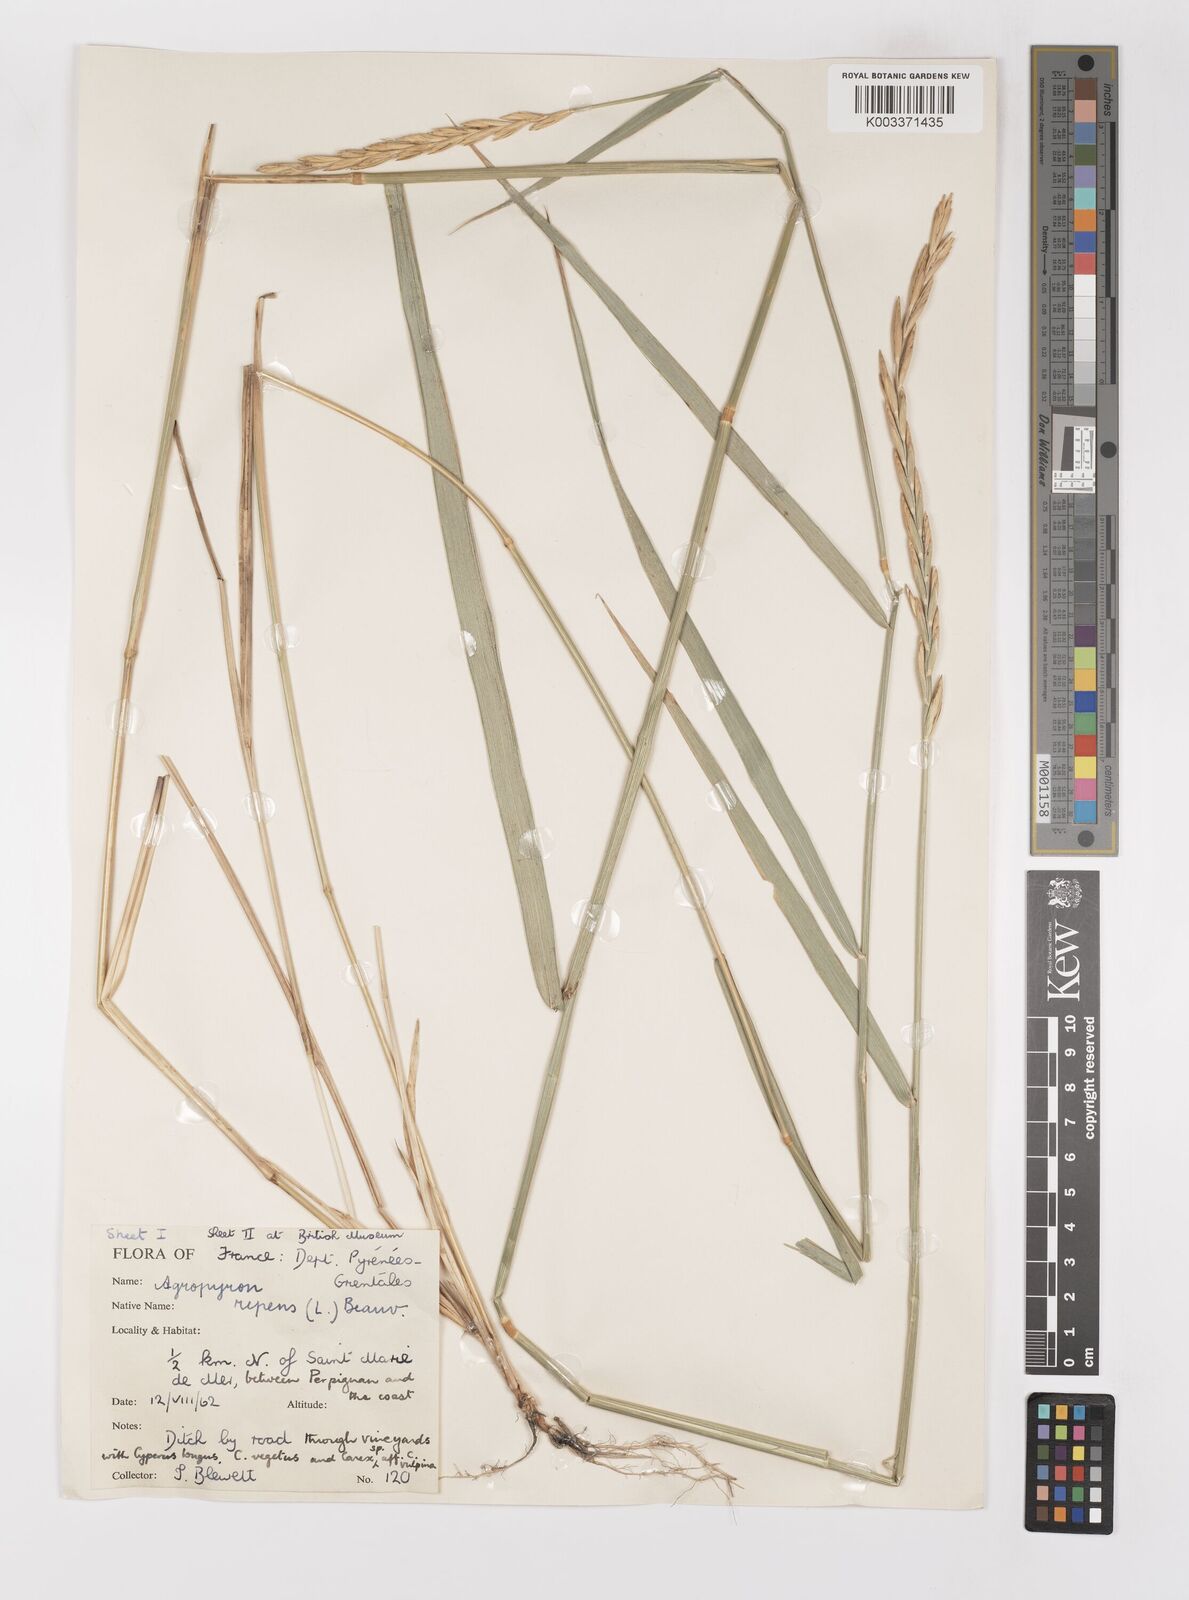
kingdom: Plantae
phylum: Tracheophyta
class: Liliopsida
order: Poales
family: Poaceae
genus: Elymus
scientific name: Elymus repens
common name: Quackgrass
